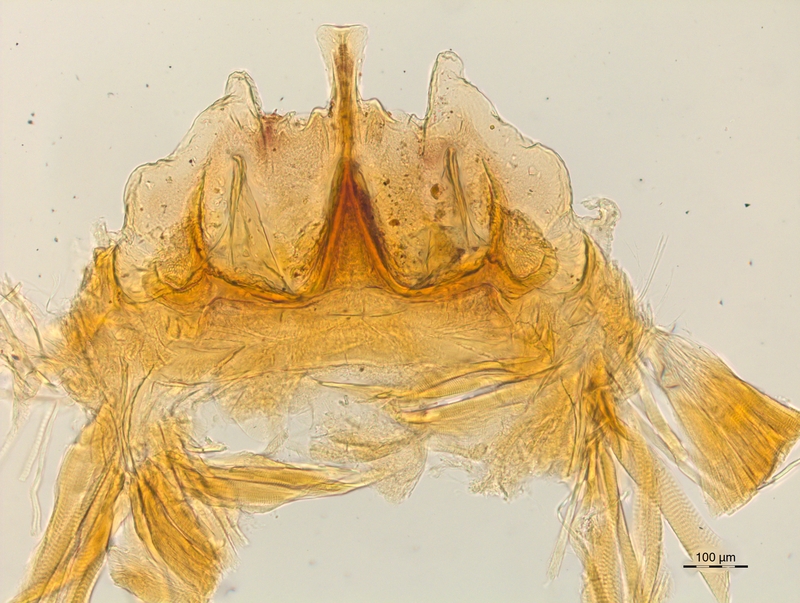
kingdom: Animalia
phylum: Arthropoda
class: Diplopoda
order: Chordeumatida
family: Craspedosomatidae
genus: Craspedosoma
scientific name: Craspedosoma rawlinsii
